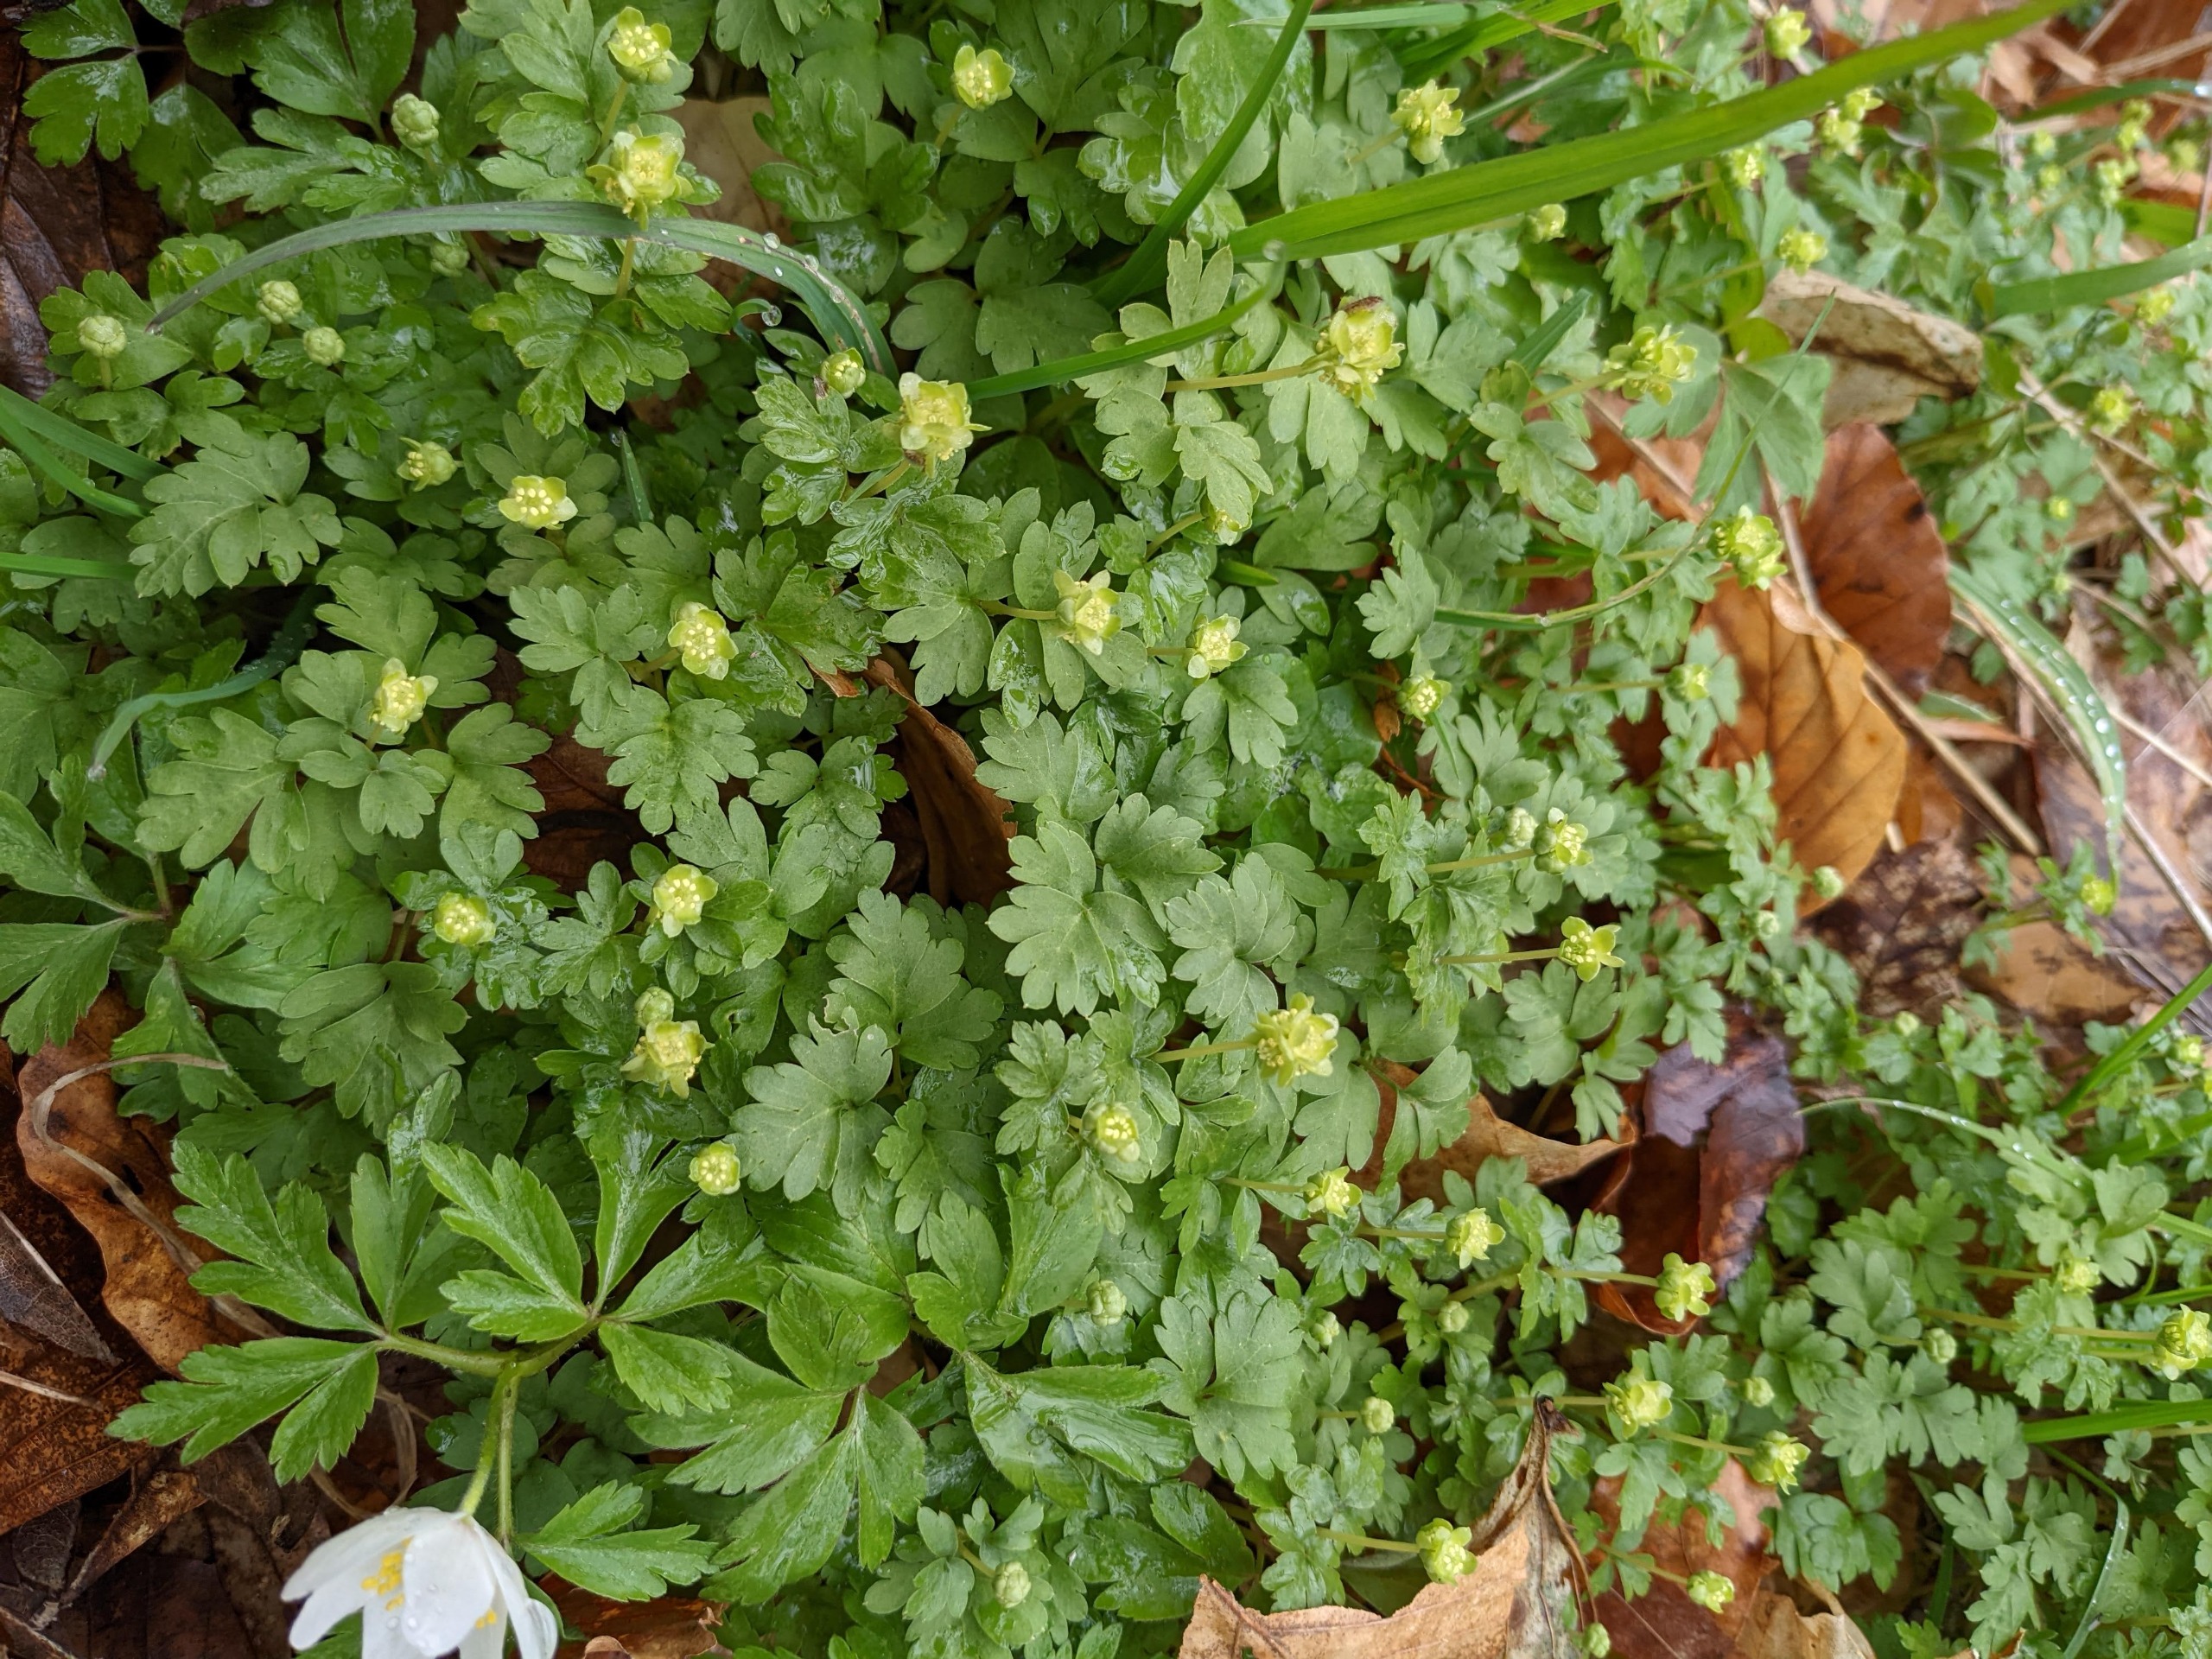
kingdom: Plantae
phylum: Tracheophyta
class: Magnoliopsida
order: Dipsacales
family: Viburnaceae
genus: Adoxa
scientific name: Adoxa moschatellina
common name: Desmerurt
